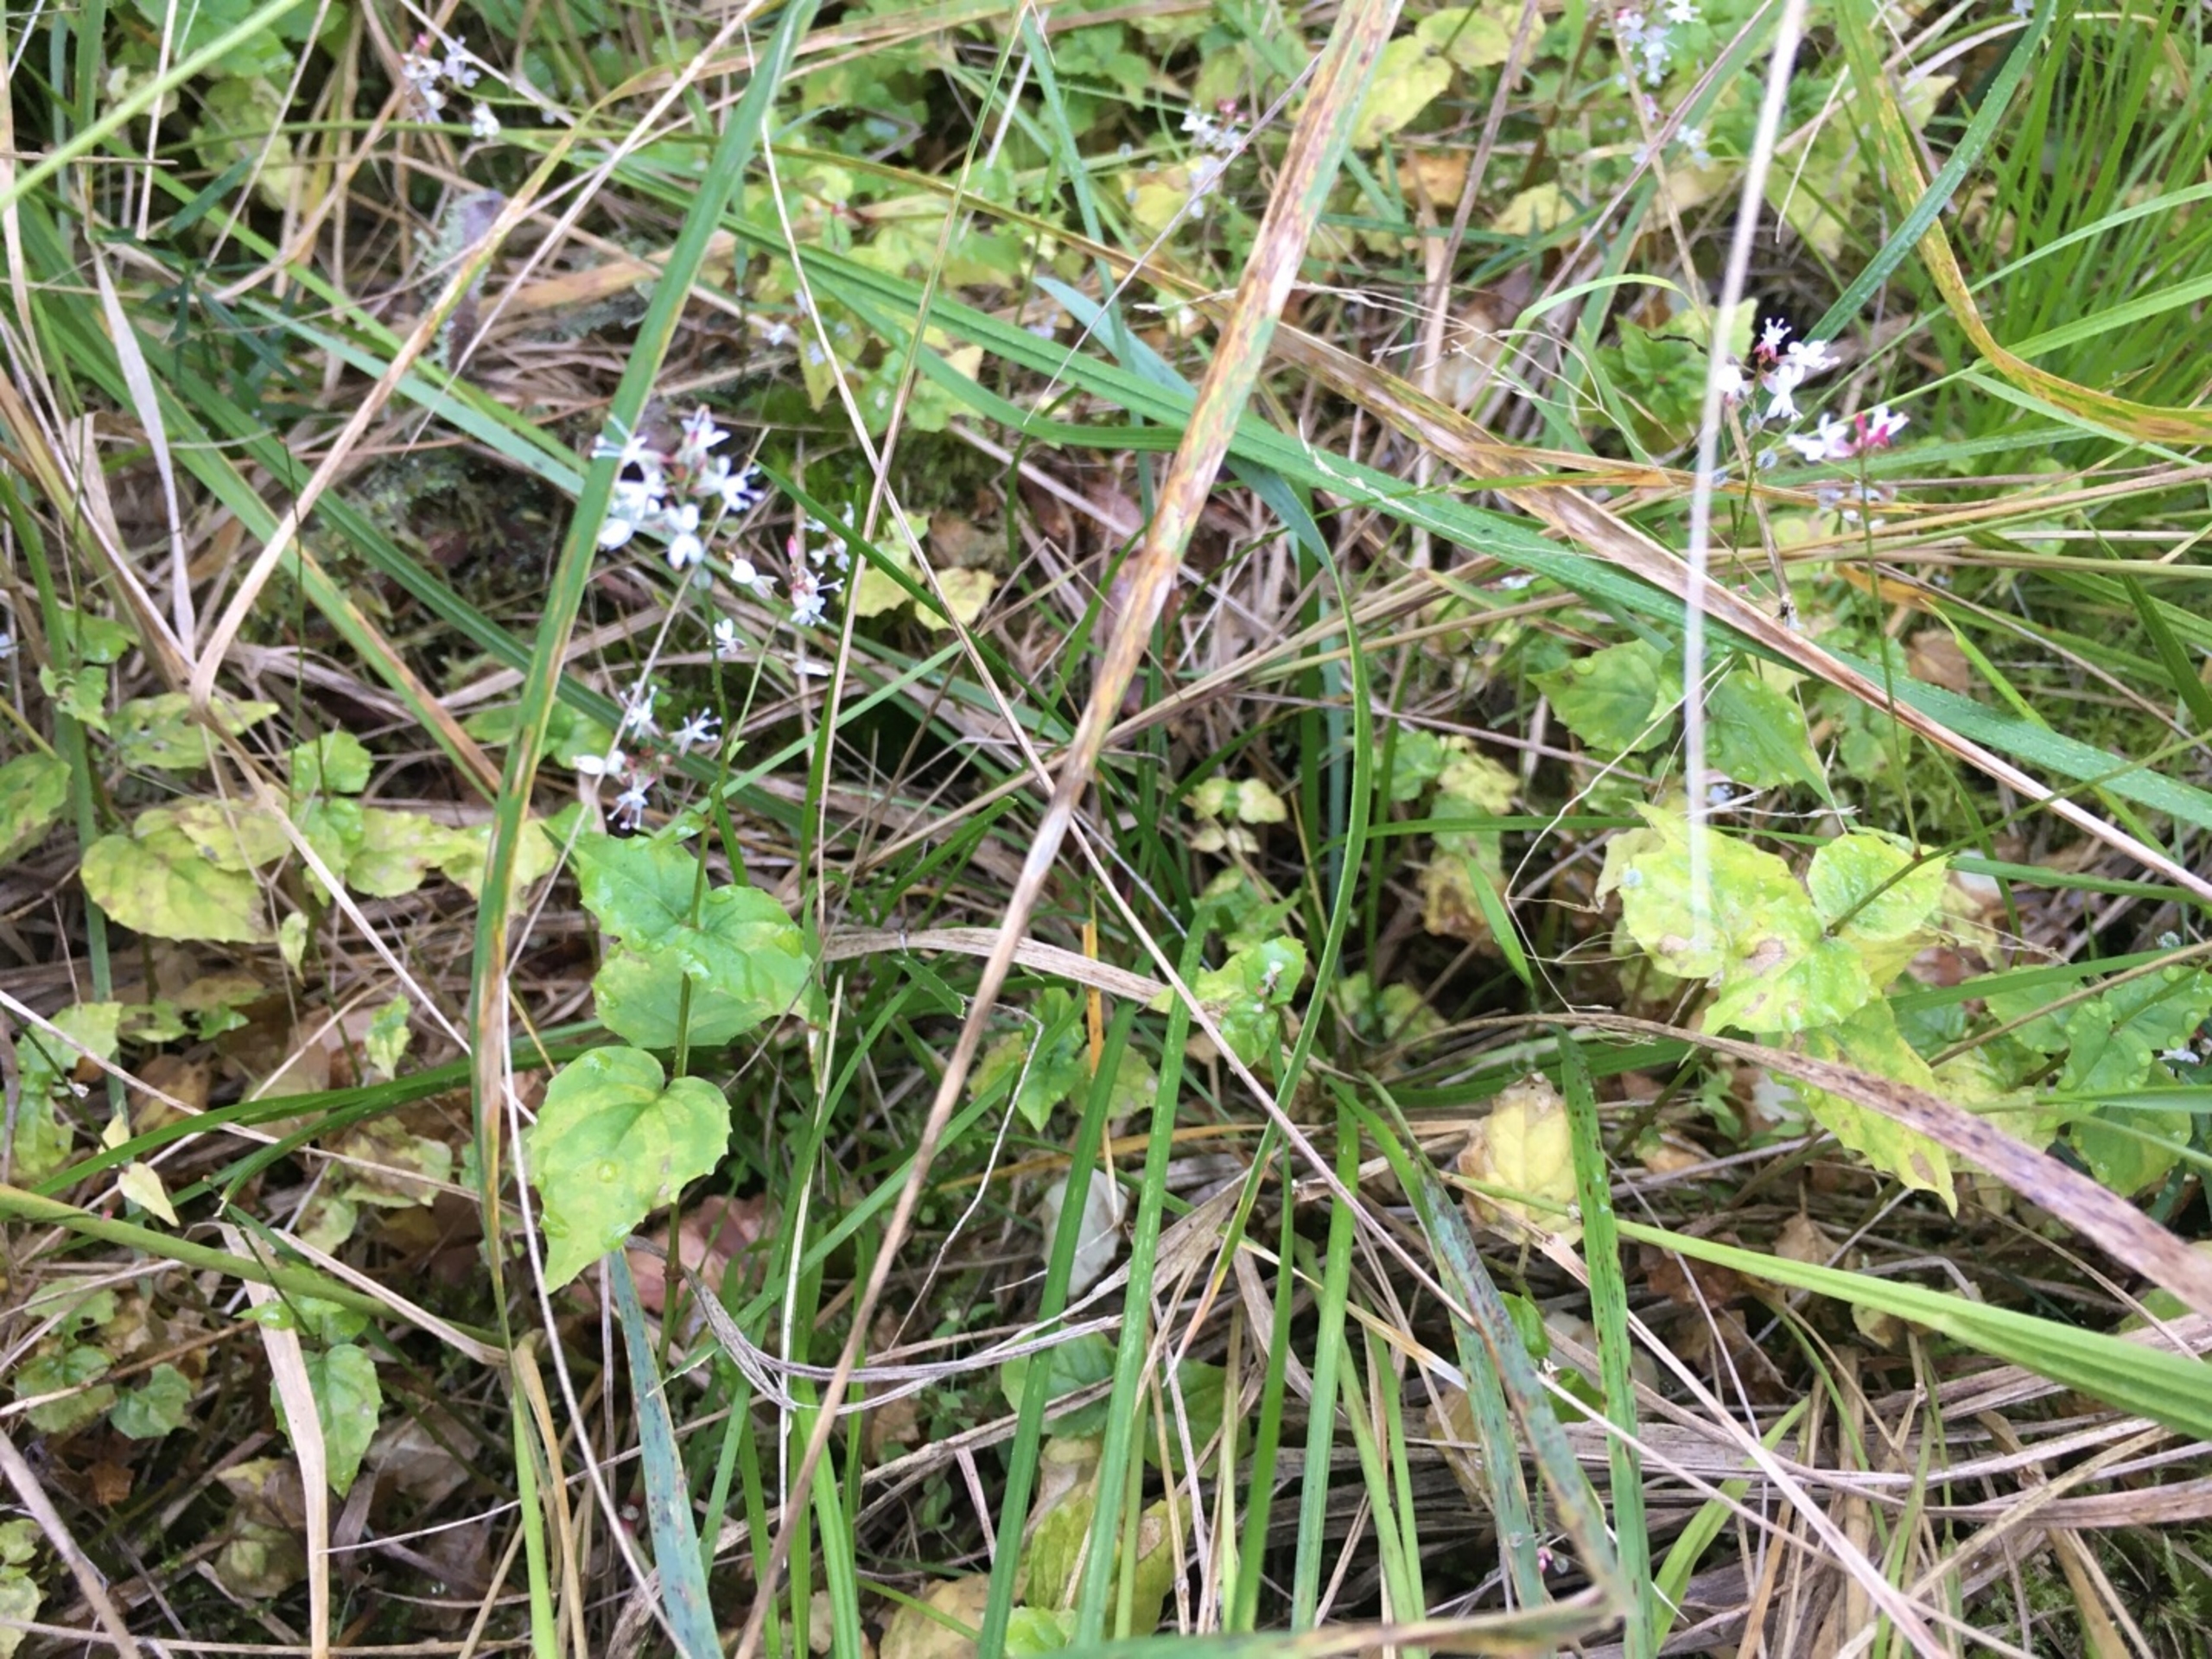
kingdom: Plantae
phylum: Tracheophyta
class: Magnoliopsida
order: Myrtales
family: Onagraceae
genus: Circaea
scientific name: Circaea alpina
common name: Liden steffensurt
